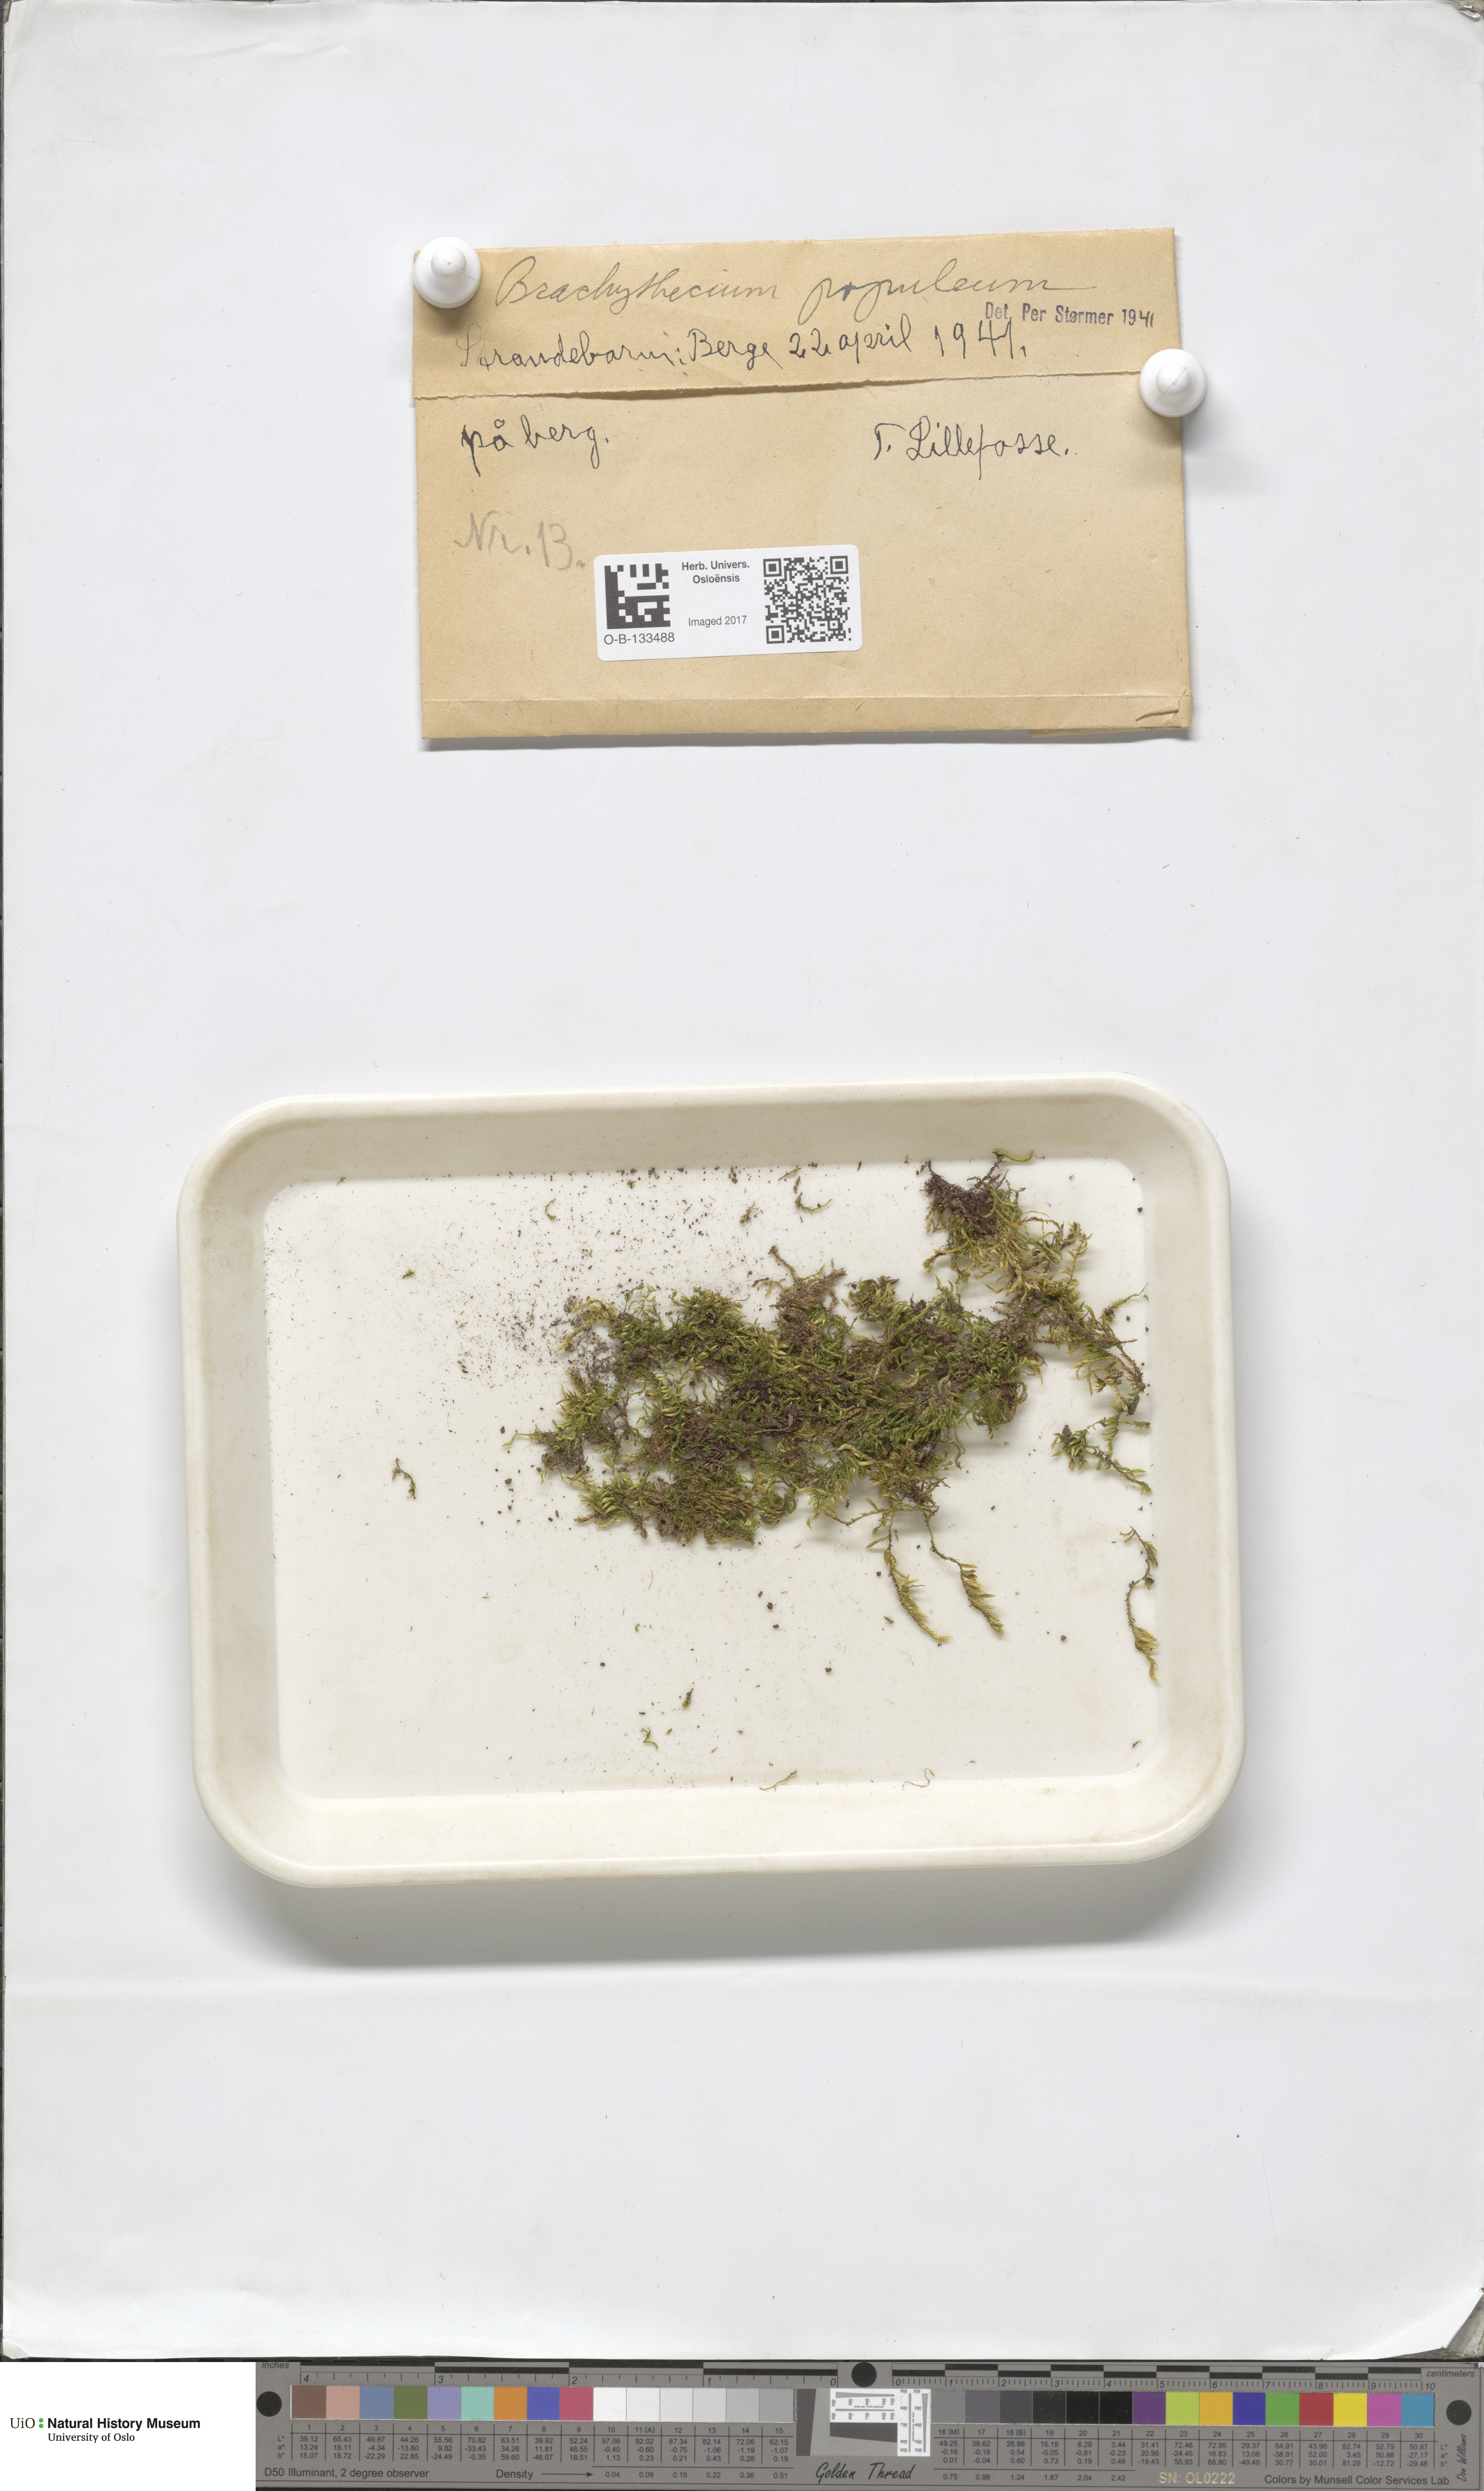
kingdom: Plantae
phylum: Bryophyta
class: Bryopsida
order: Hypnales
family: Brachytheciaceae
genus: Sciuro-hypnum
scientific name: Sciuro-hypnum plumosum
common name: Rusty feather-moss
